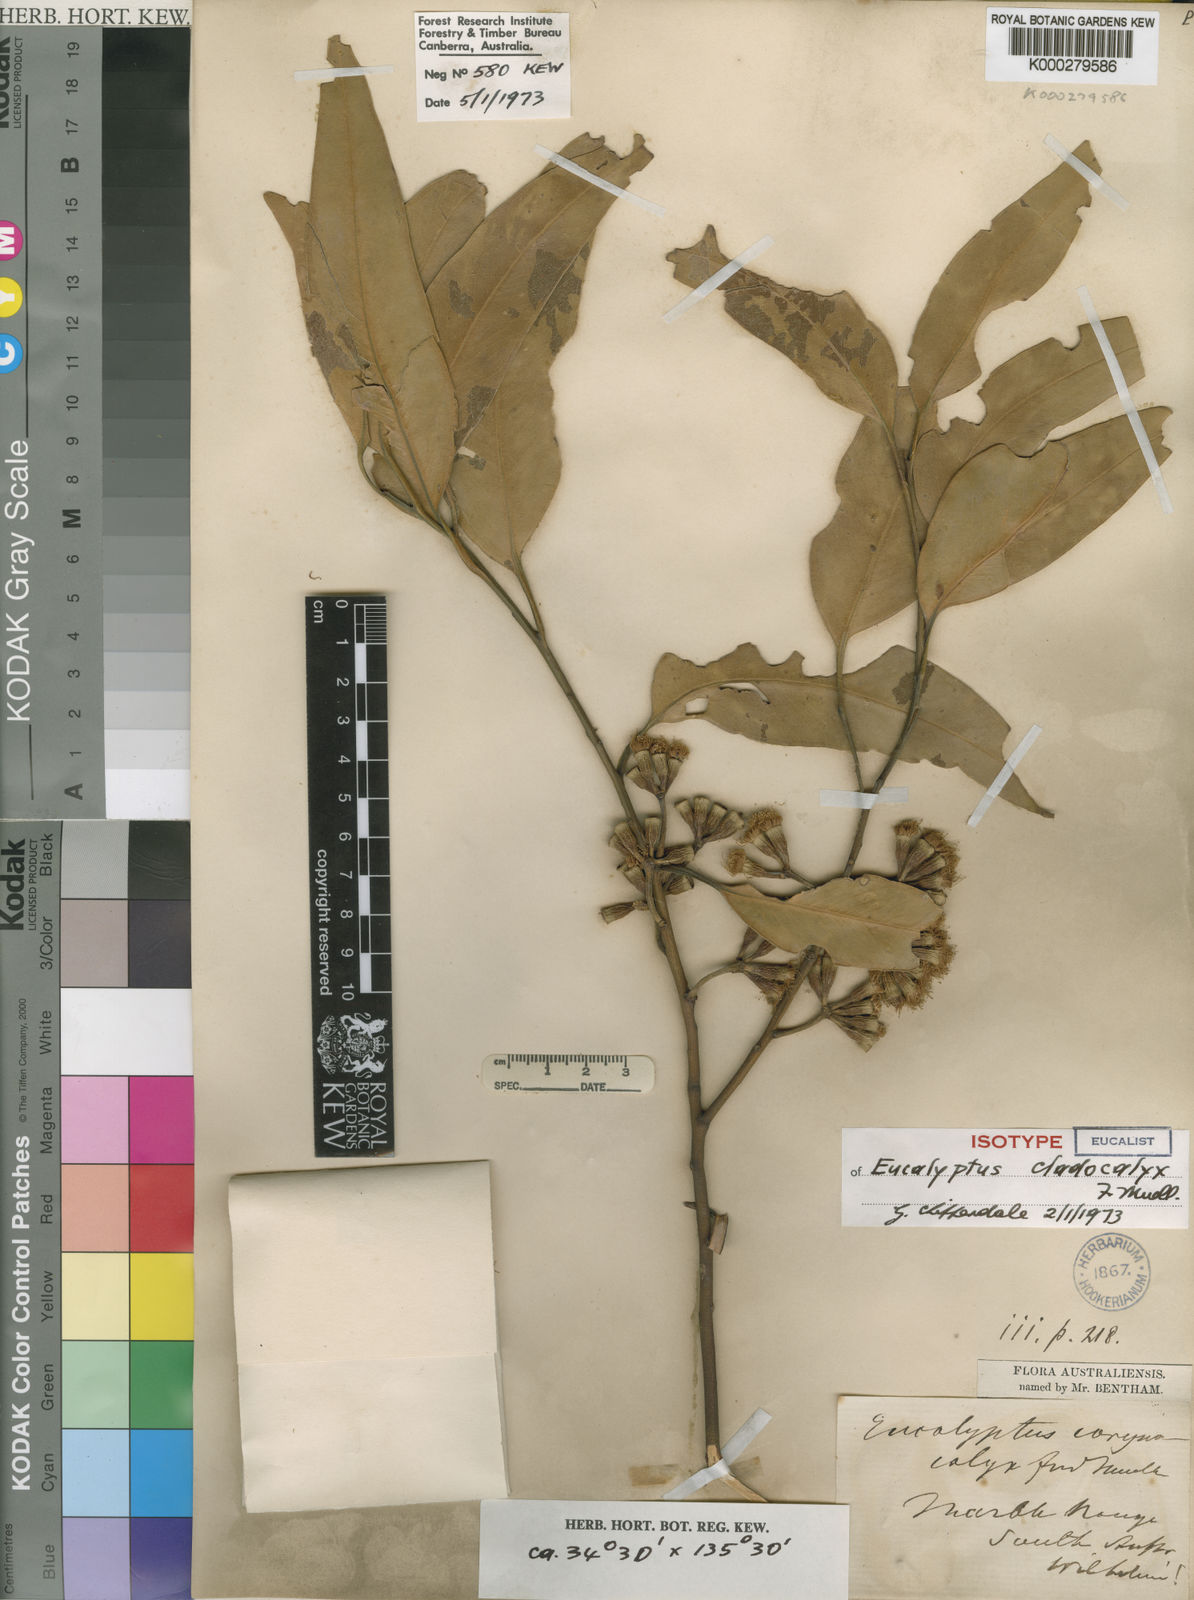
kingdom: Plantae
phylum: Tracheophyta
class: Magnoliopsida
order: Myrtales
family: Myrtaceae
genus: Eucalyptus
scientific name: Eucalyptus cladocalyx
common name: Sugargum
